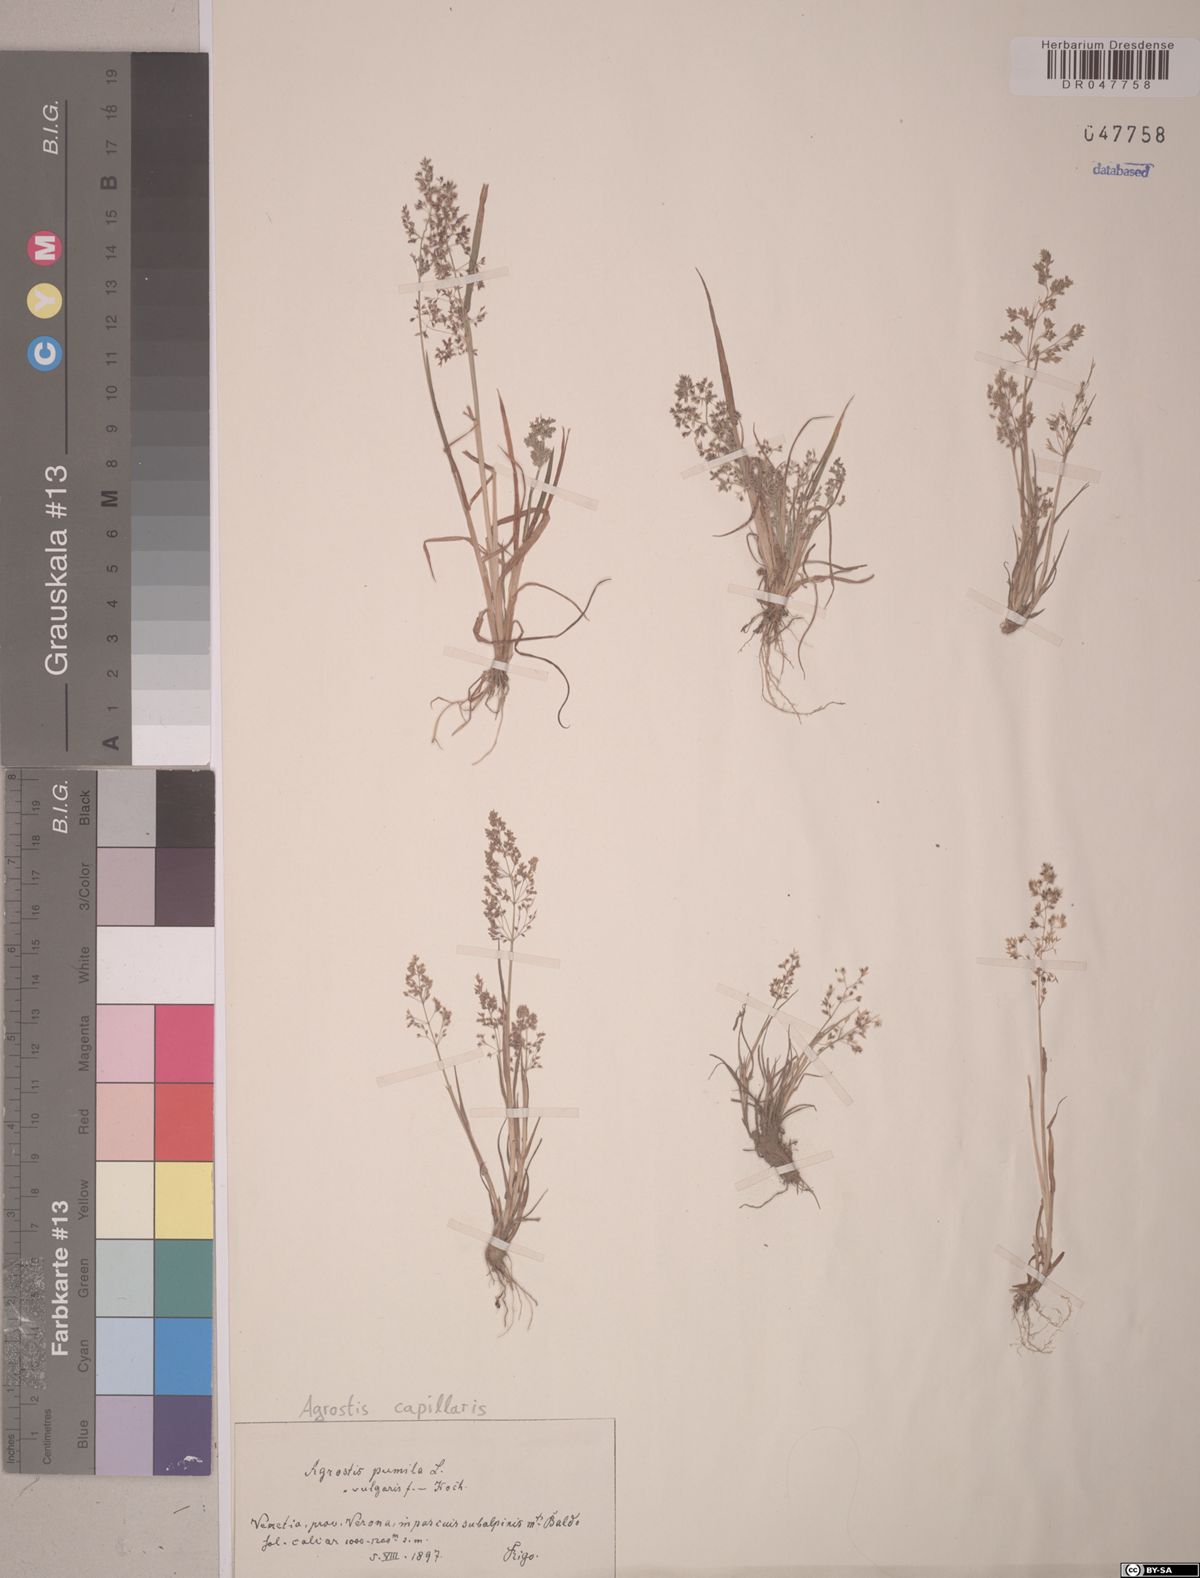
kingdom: Plantae
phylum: Tracheophyta
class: Liliopsida
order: Poales
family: Poaceae
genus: Agrostis
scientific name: Agrostis capillaris
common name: Colonial bentgrass
